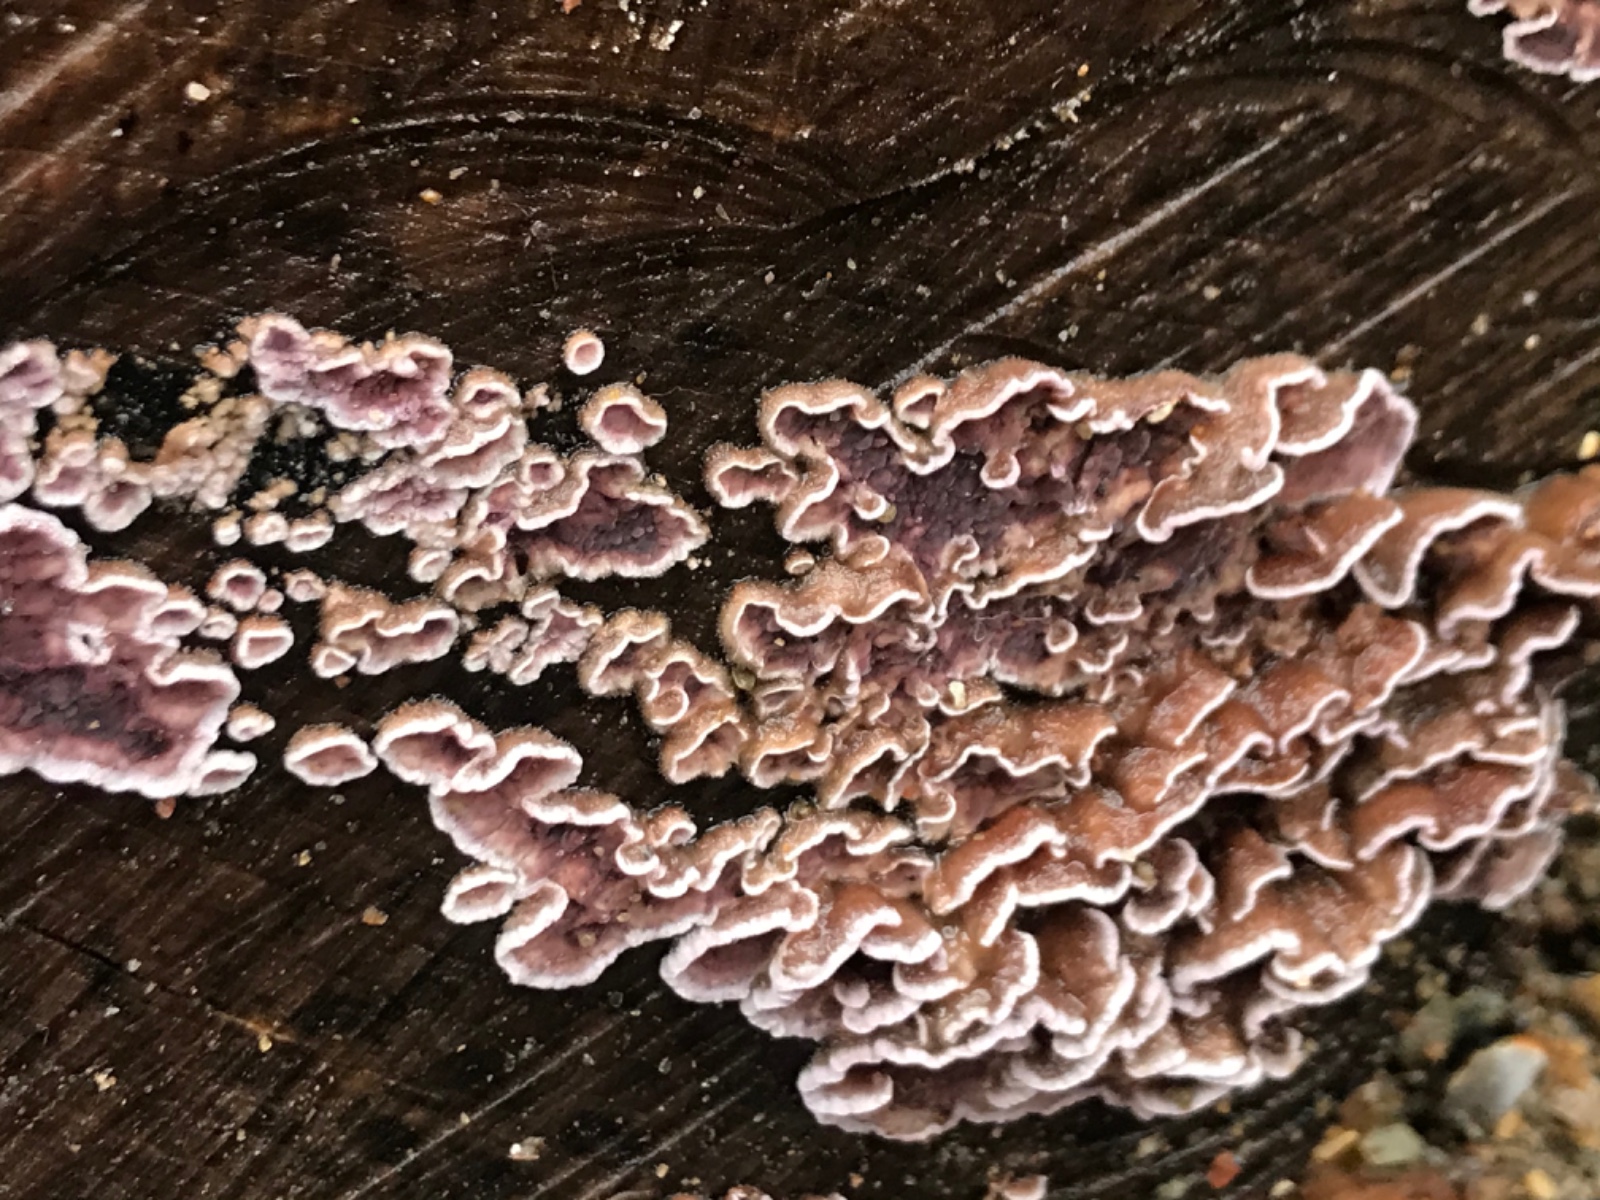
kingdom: Fungi
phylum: Basidiomycota
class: Agaricomycetes
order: Agaricales
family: Cyphellaceae
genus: Chondrostereum
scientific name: Chondrostereum purpureum
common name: purpurlædersvamp
